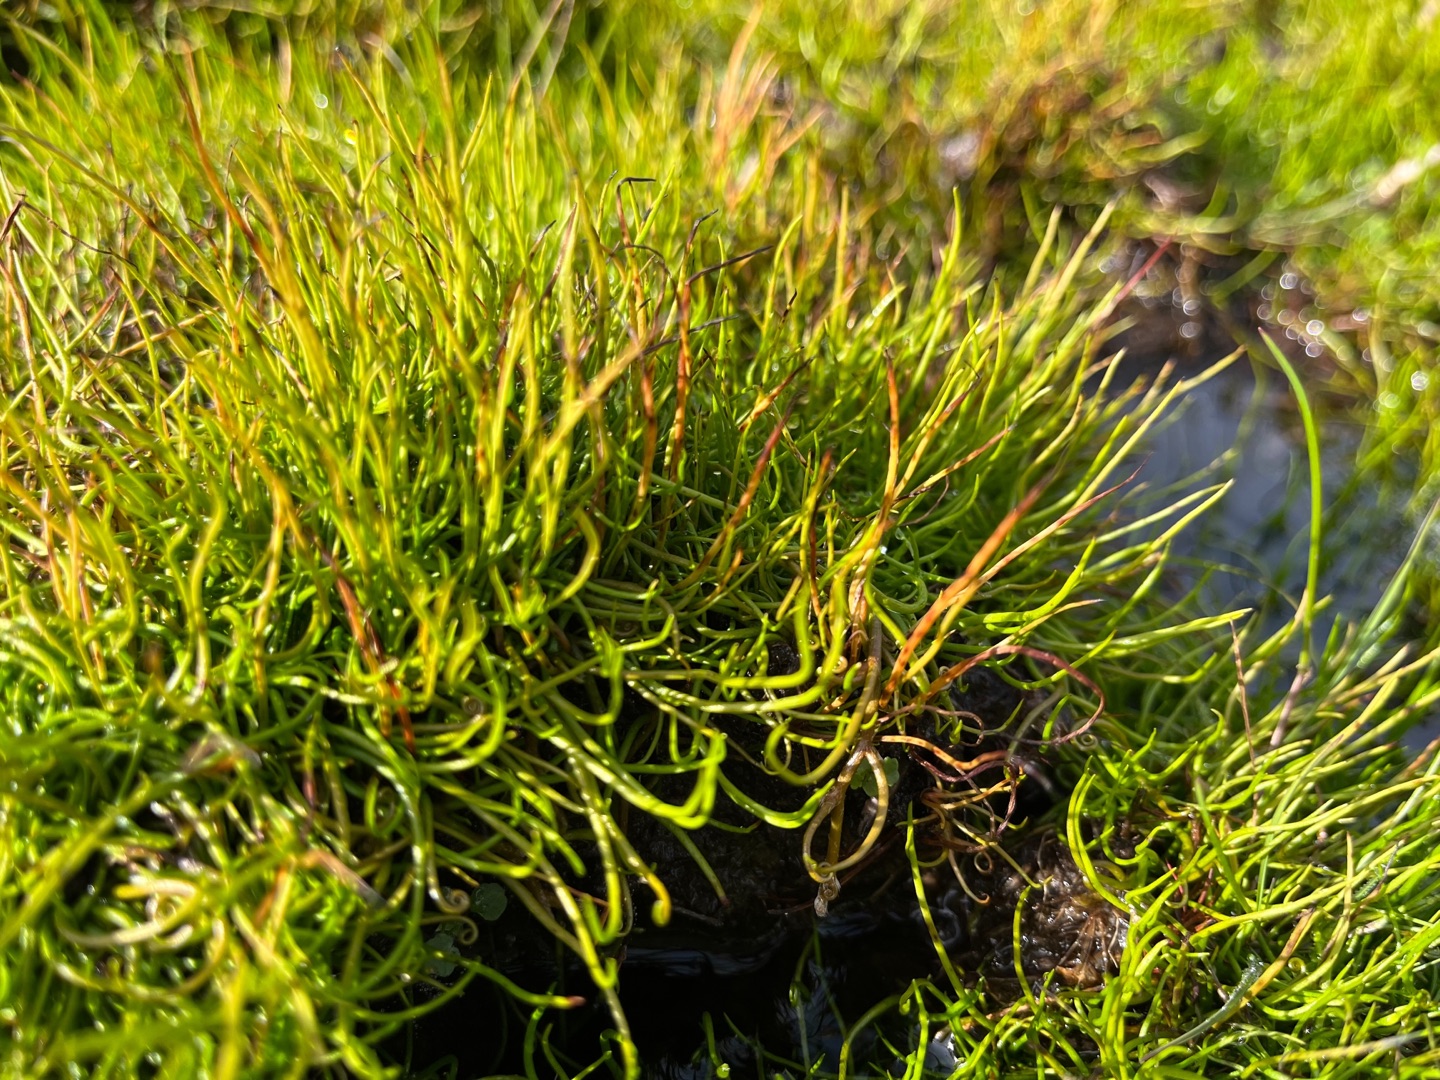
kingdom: Plantae
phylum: Tracheophyta
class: Polypodiopsida
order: Salviniales
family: Marsileaceae
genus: Pilularia
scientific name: Pilularia globulifera
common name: Pilledrager
